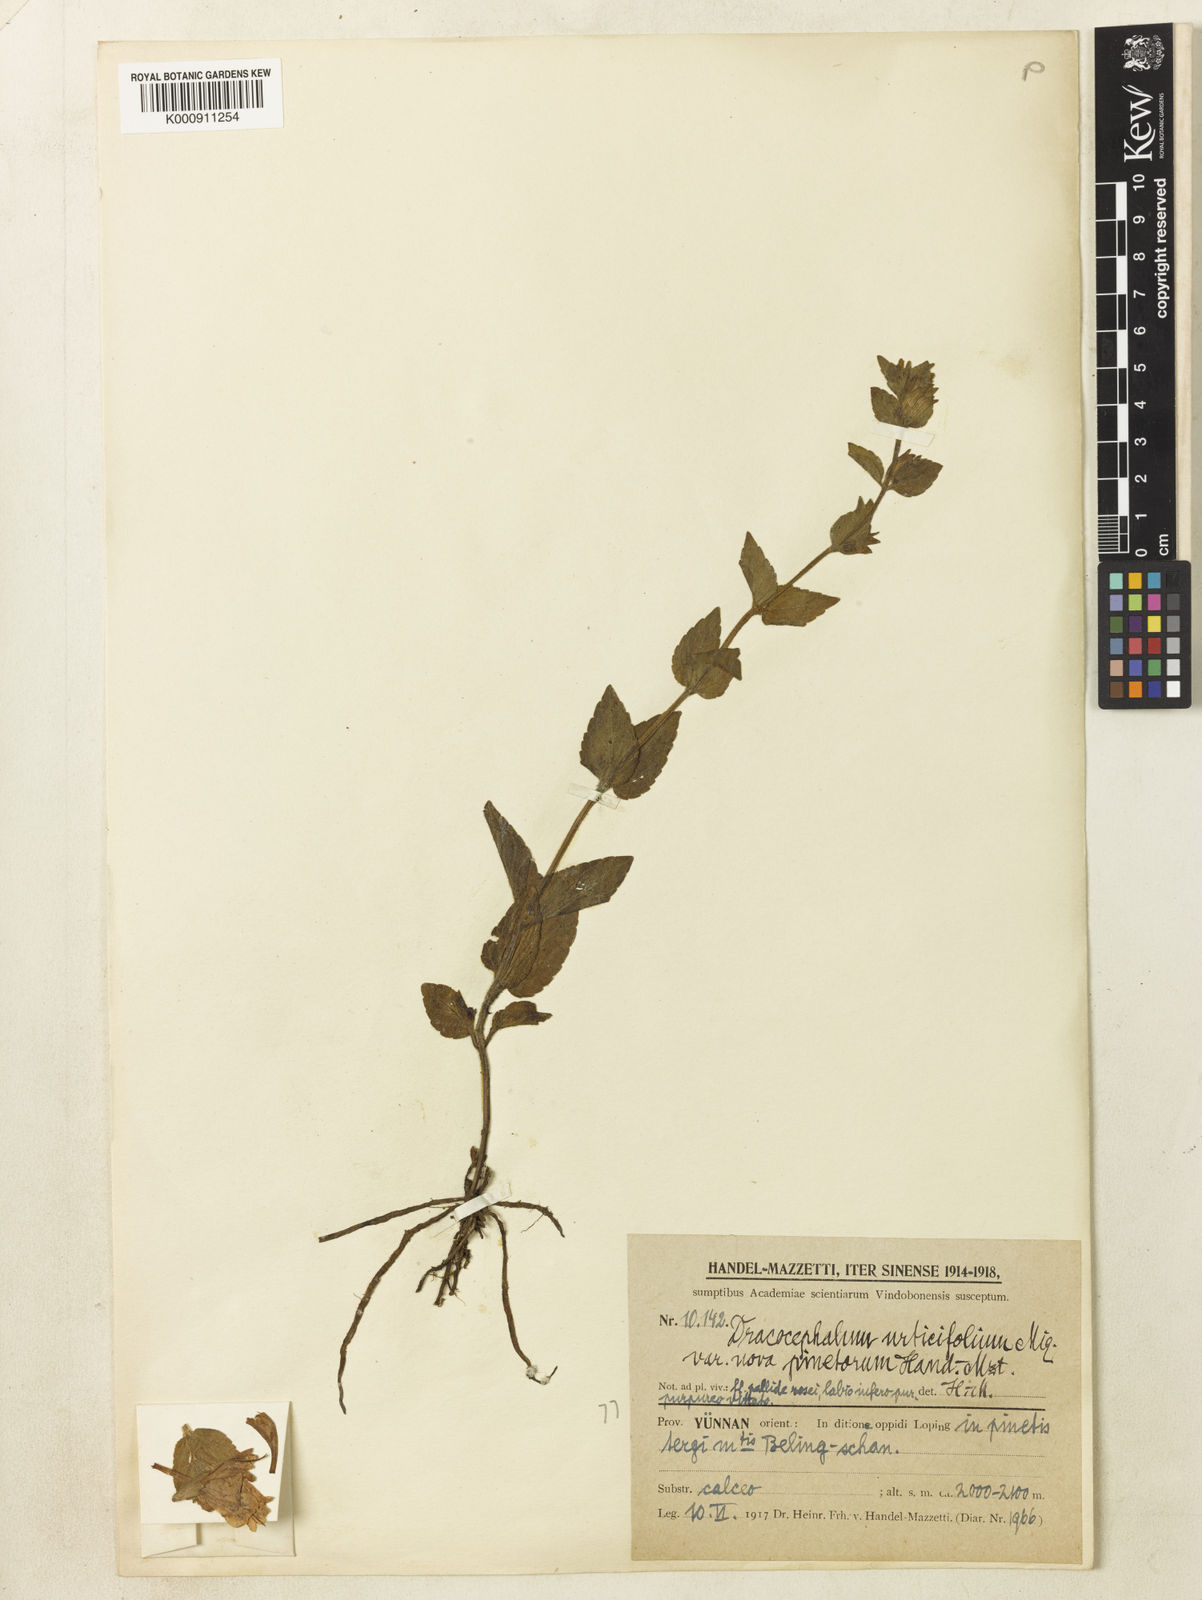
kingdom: Plantae
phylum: Tracheophyta
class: Magnoliopsida
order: Lamiales
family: Lamiaceae
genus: Meehania
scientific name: Meehania fargesii
